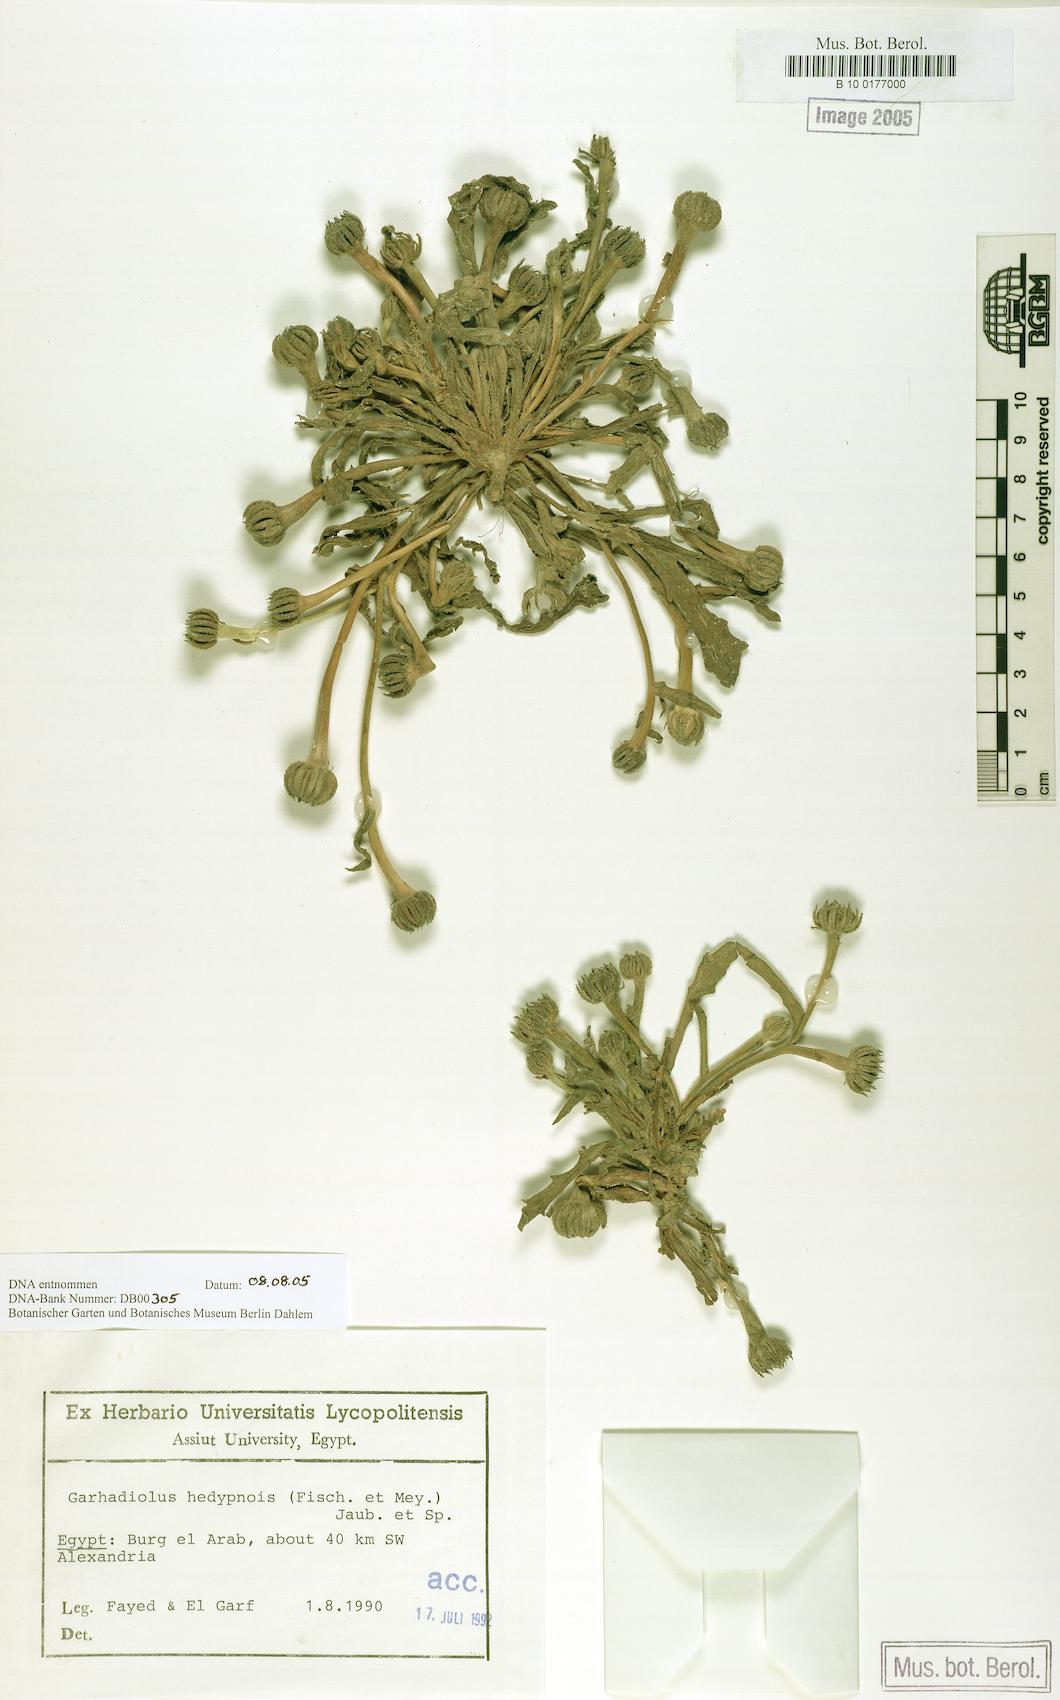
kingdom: Plantae
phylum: Tracheophyta
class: Magnoliopsida
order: Asterales
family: Asteraceae
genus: Hedypnois
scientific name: Hedypnois rhagadioloides
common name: Cretan weed
